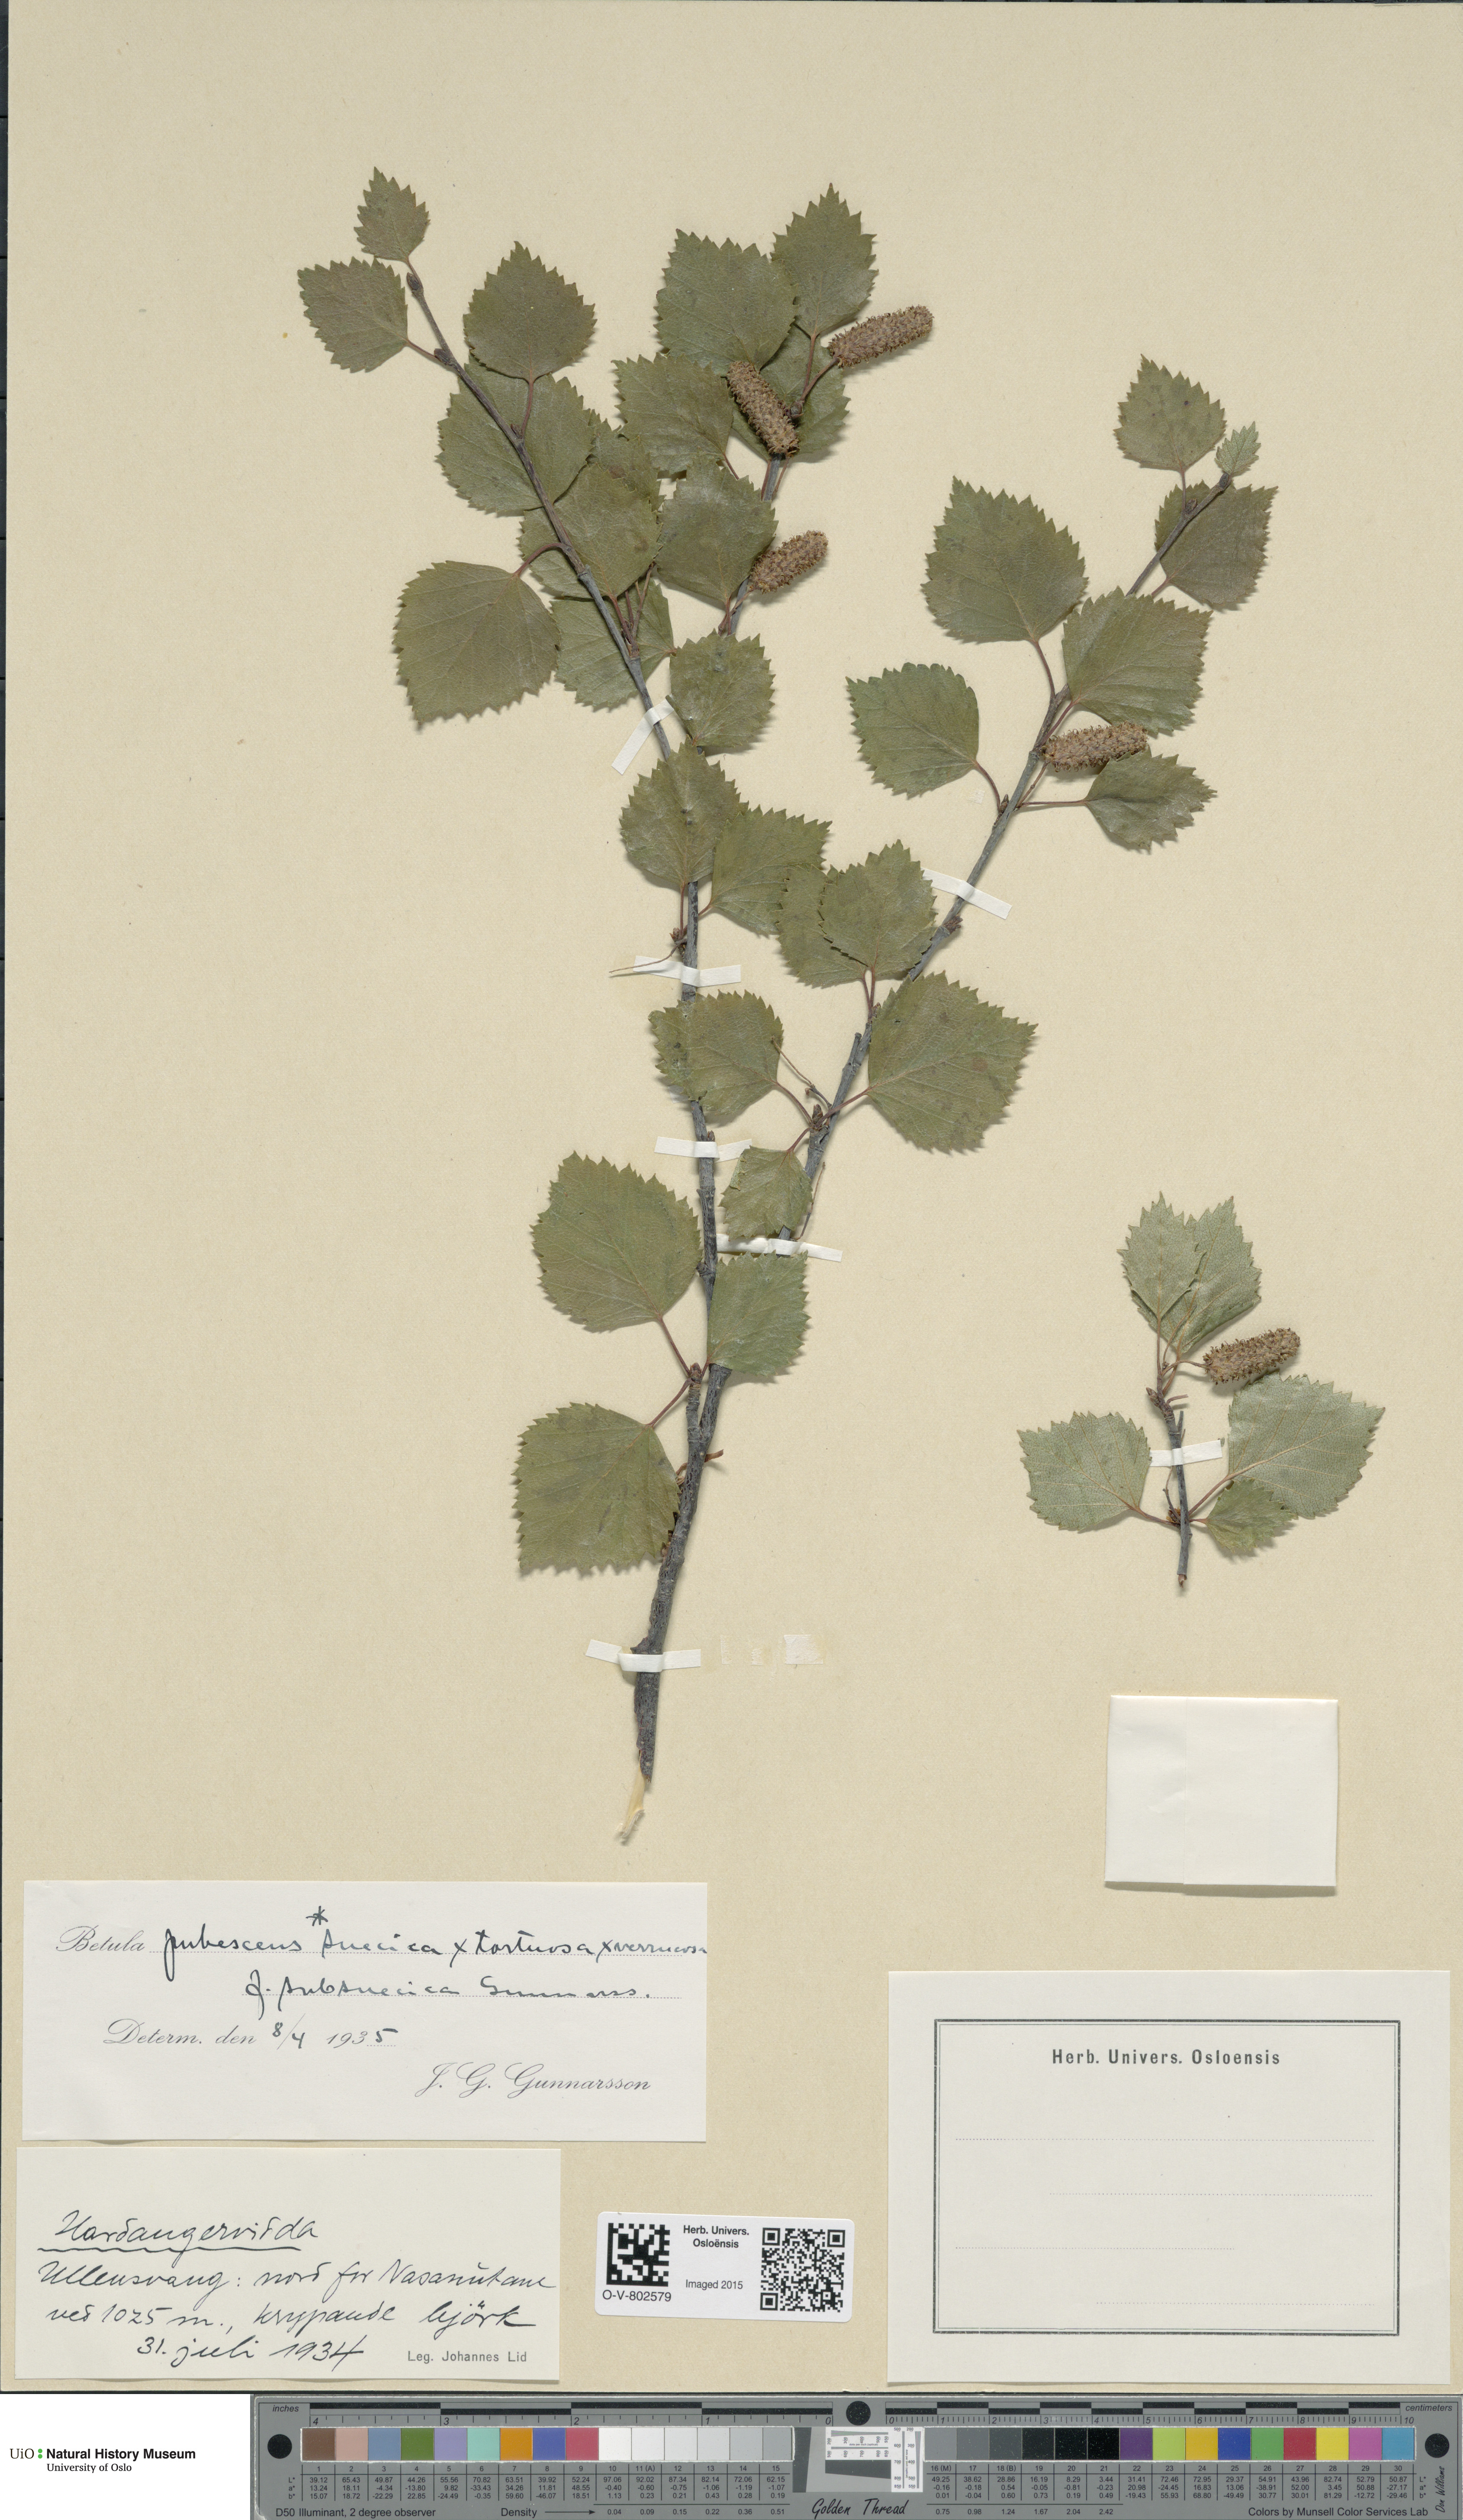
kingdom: Plantae
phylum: Tracheophyta
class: Magnoliopsida
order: Fagales
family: Betulaceae
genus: Betula
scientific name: Betula pubescens
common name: Downy birch
